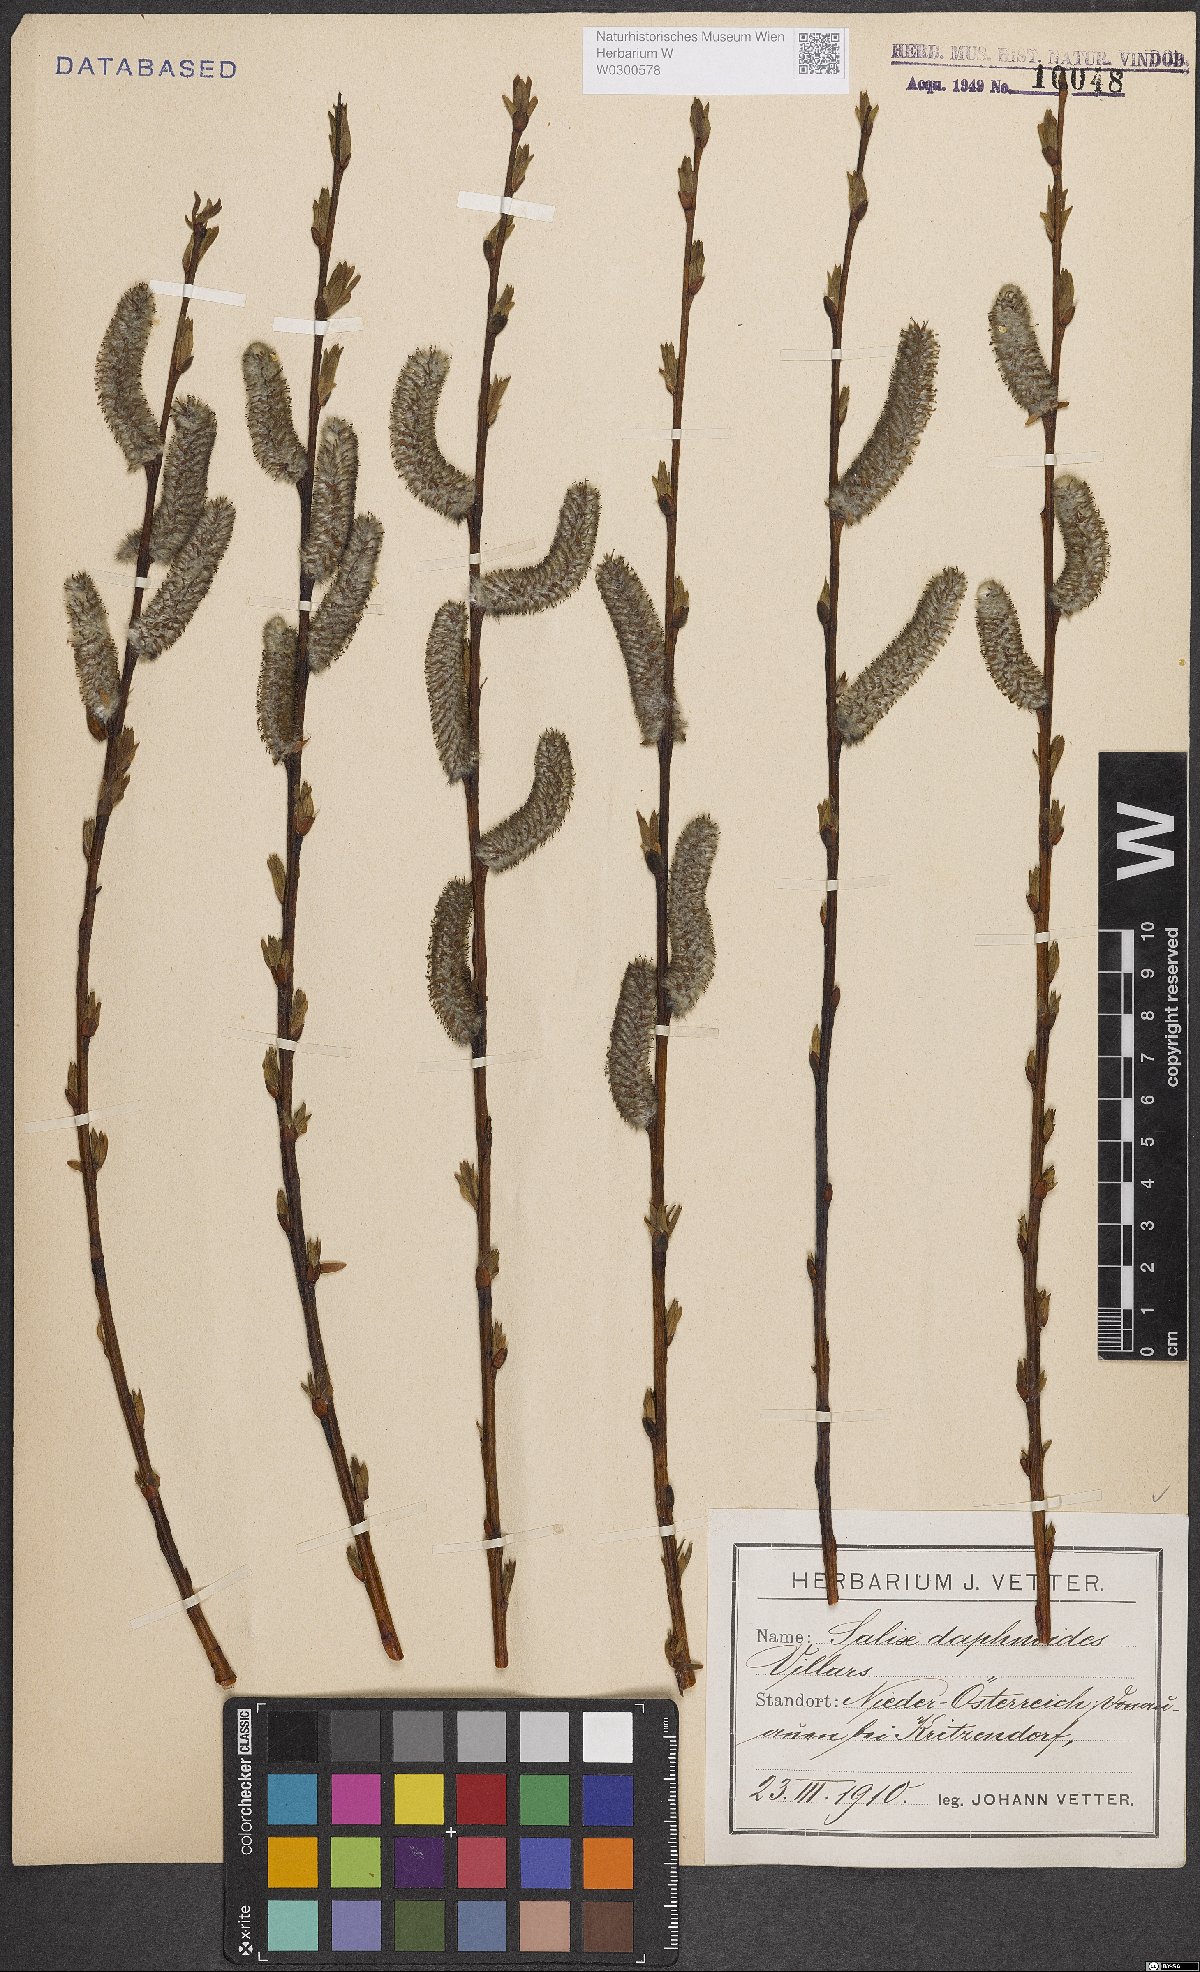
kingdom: Plantae
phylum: Tracheophyta
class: Magnoliopsida
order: Malpighiales
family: Salicaceae
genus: Salix
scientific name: Salix daphnoides
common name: European violet-willow
